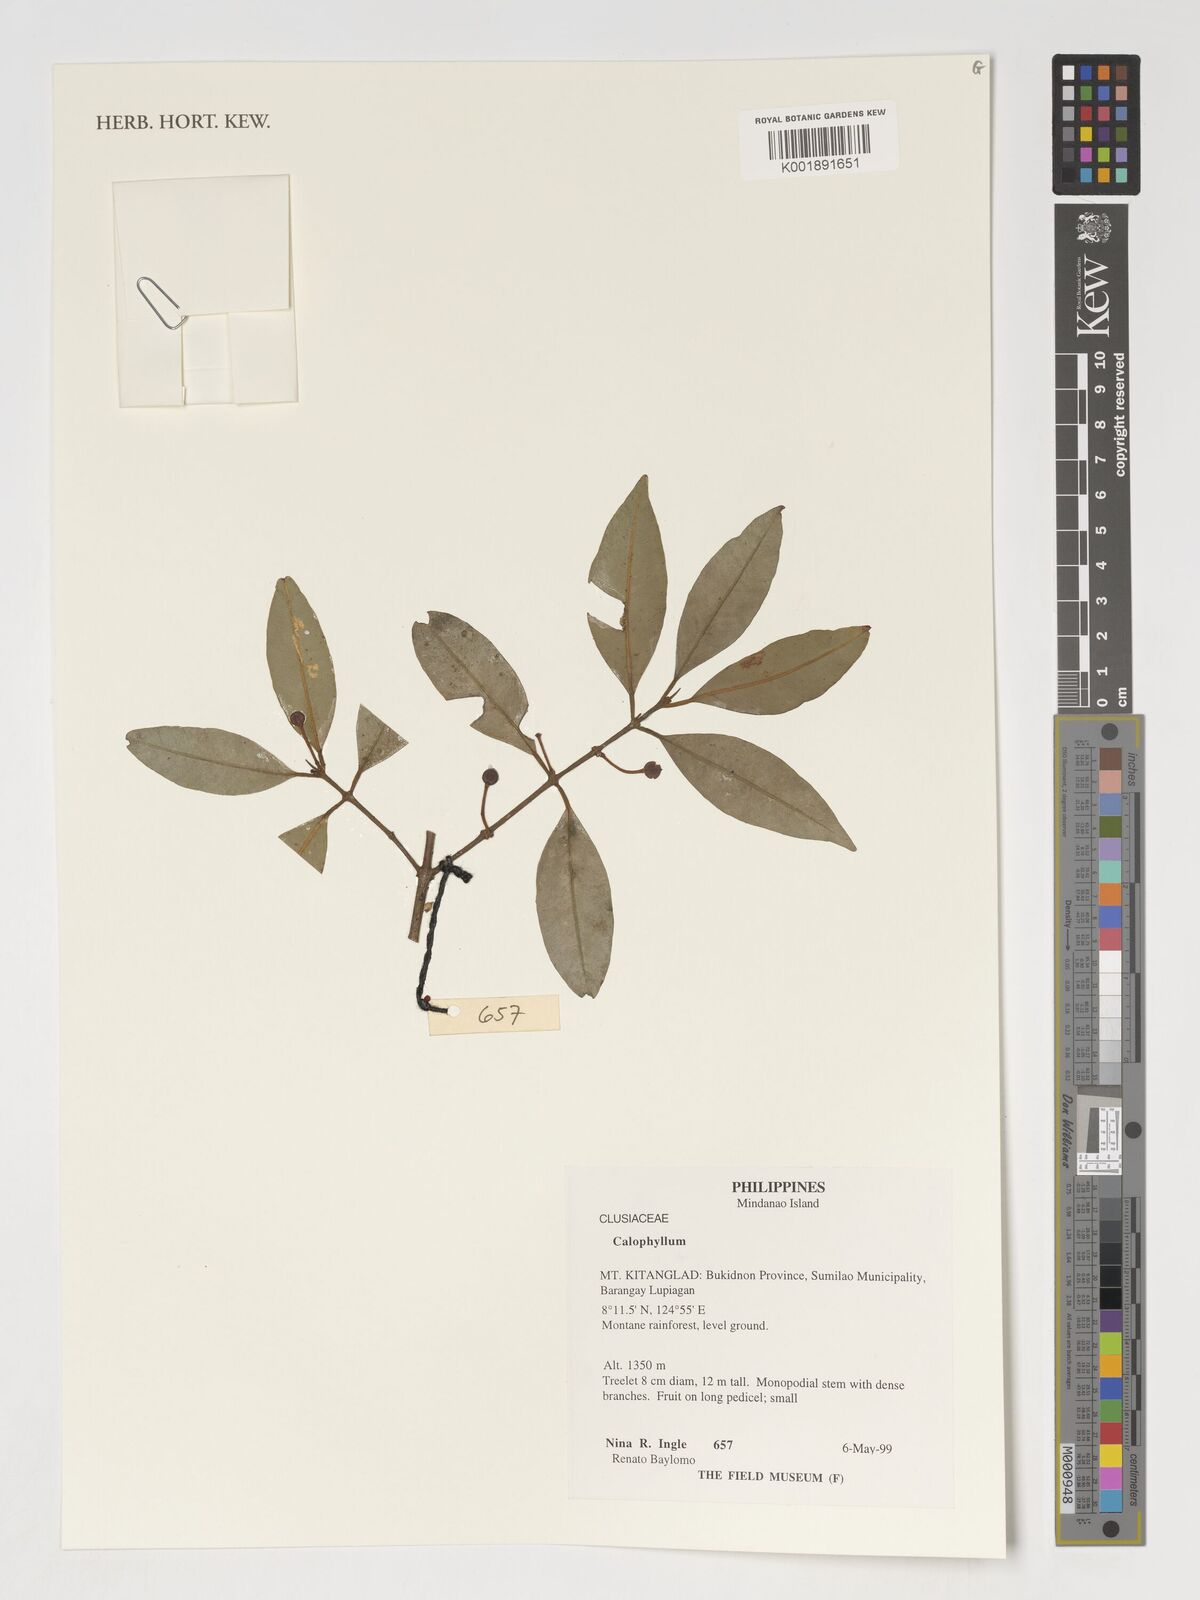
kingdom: Plantae
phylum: Tracheophyta
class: Magnoliopsida
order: Malpighiales
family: Calophyllaceae
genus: Calophyllum
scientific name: Calophyllum
